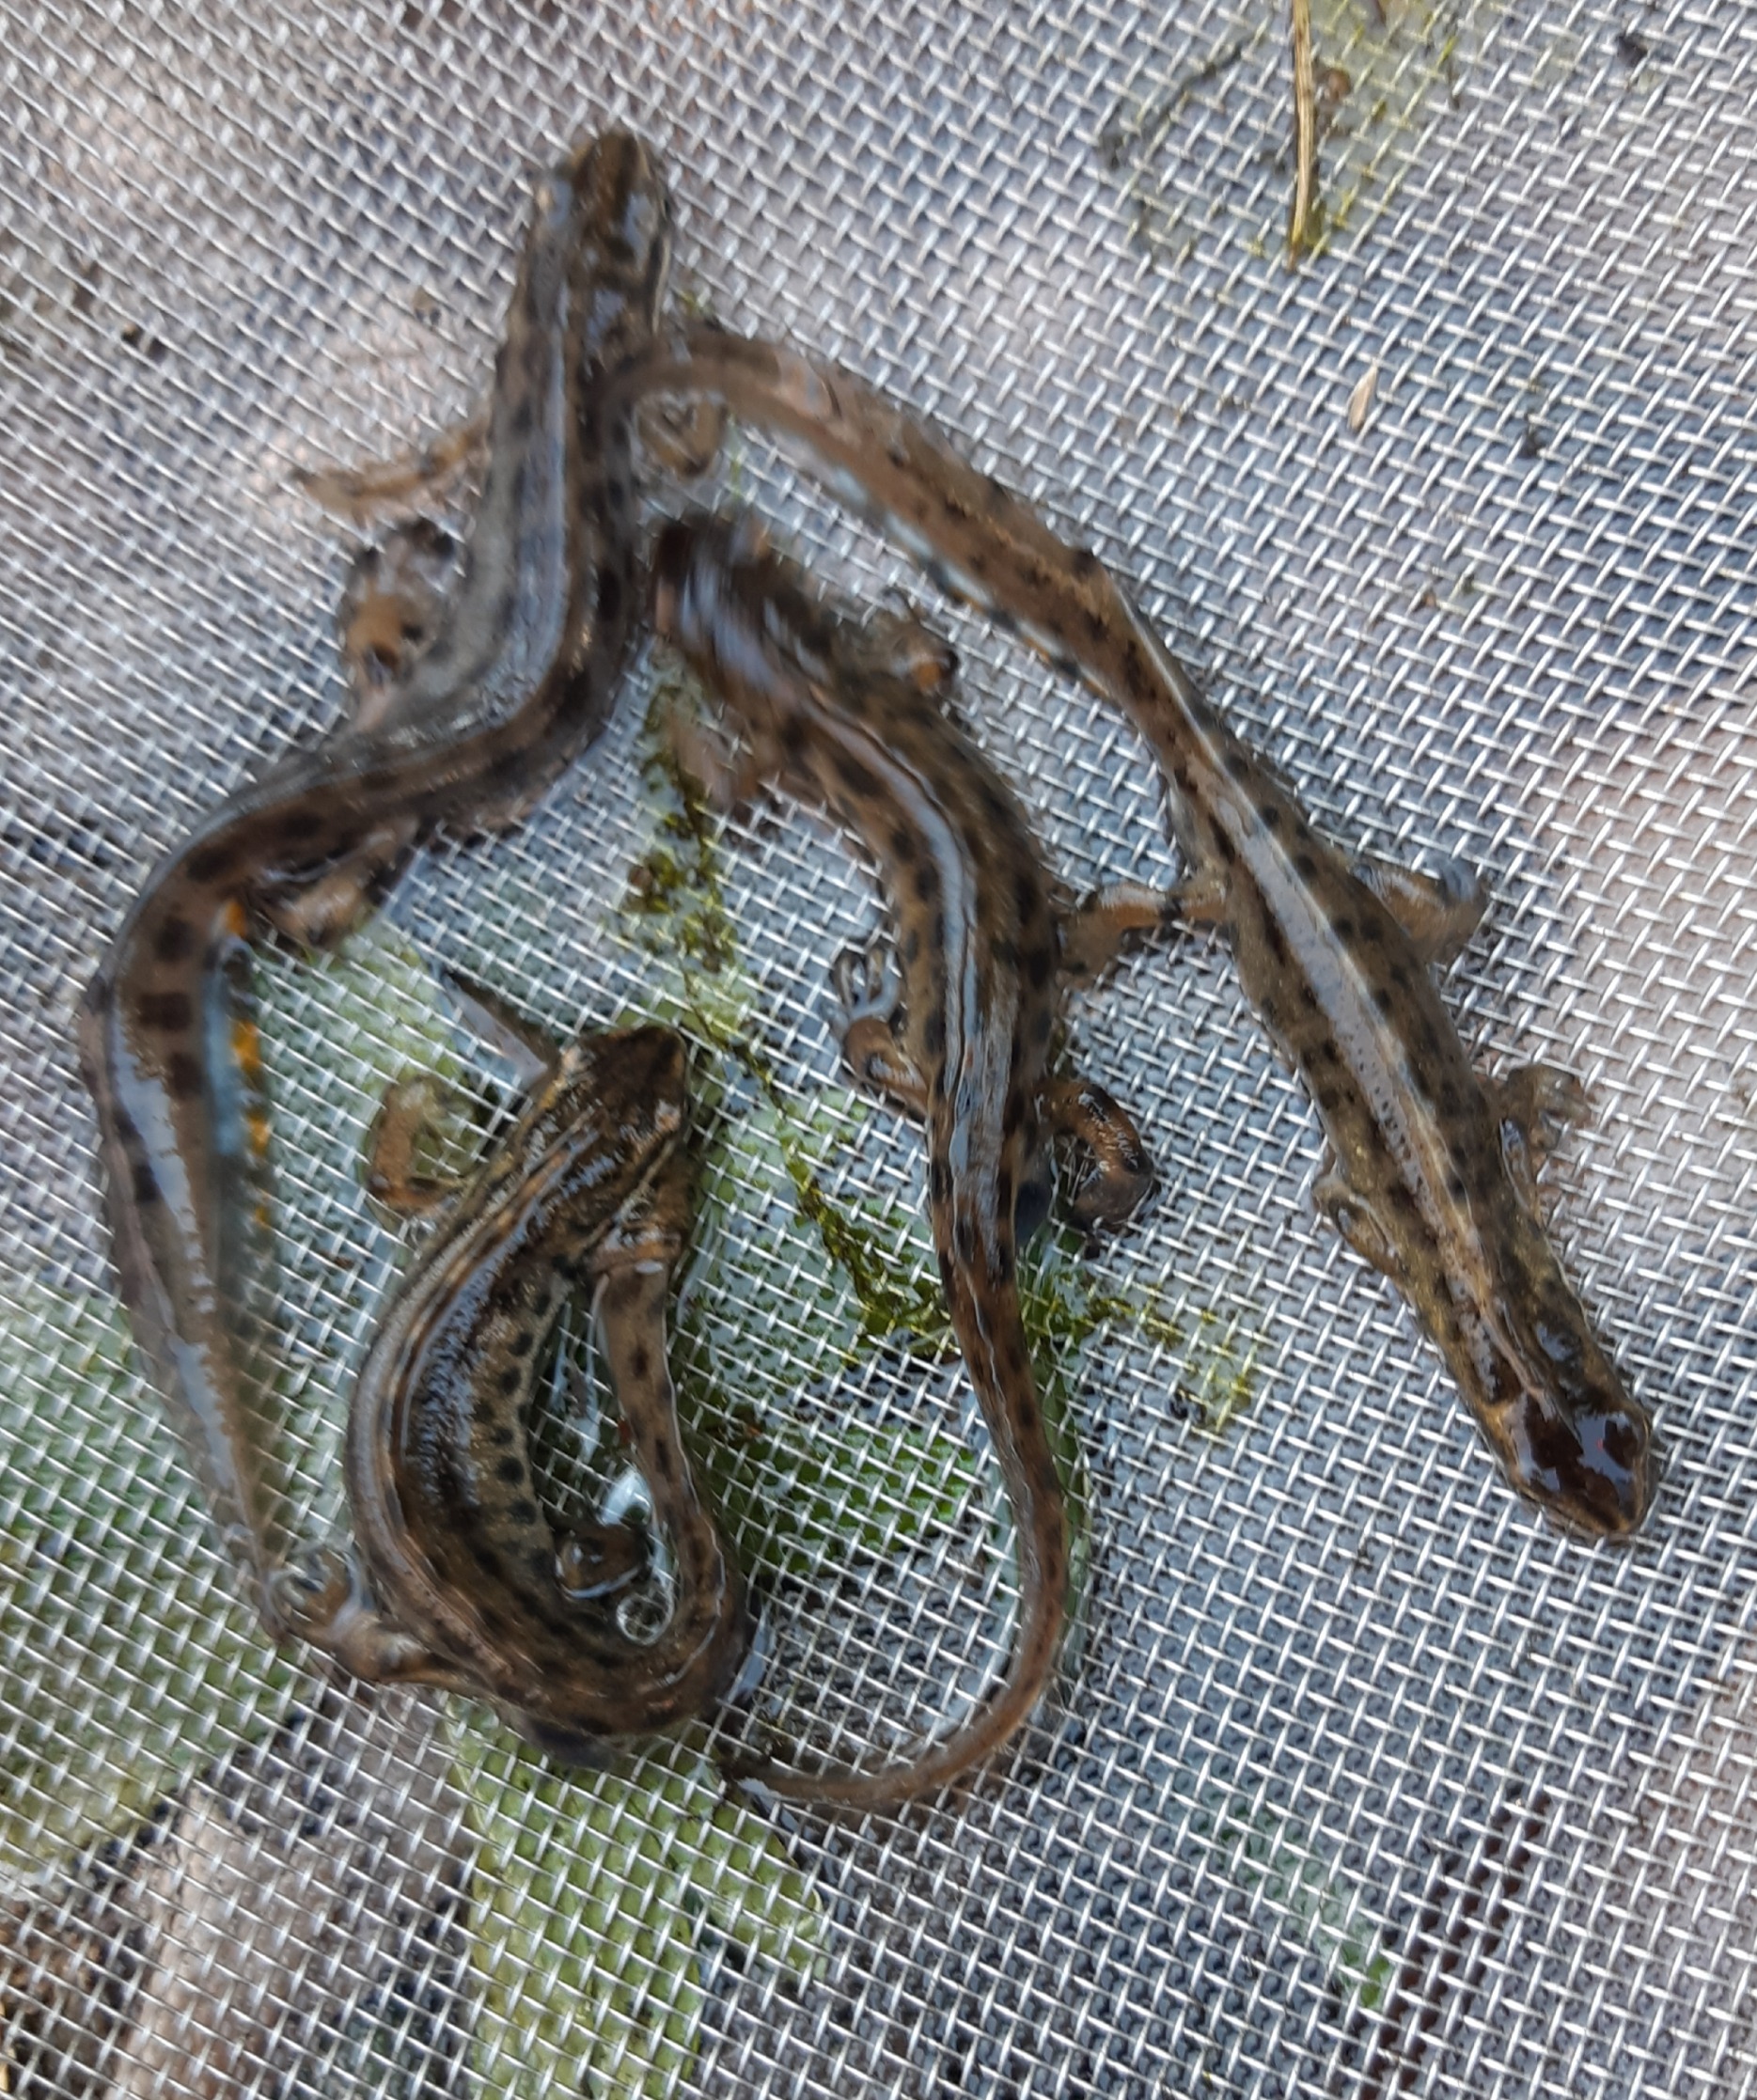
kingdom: Animalia
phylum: Chordata
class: Amphibia
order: Caudata
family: Salamandridae
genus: Lissotriton
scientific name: Lissotriton vulgaris
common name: Lille vandsalamander
